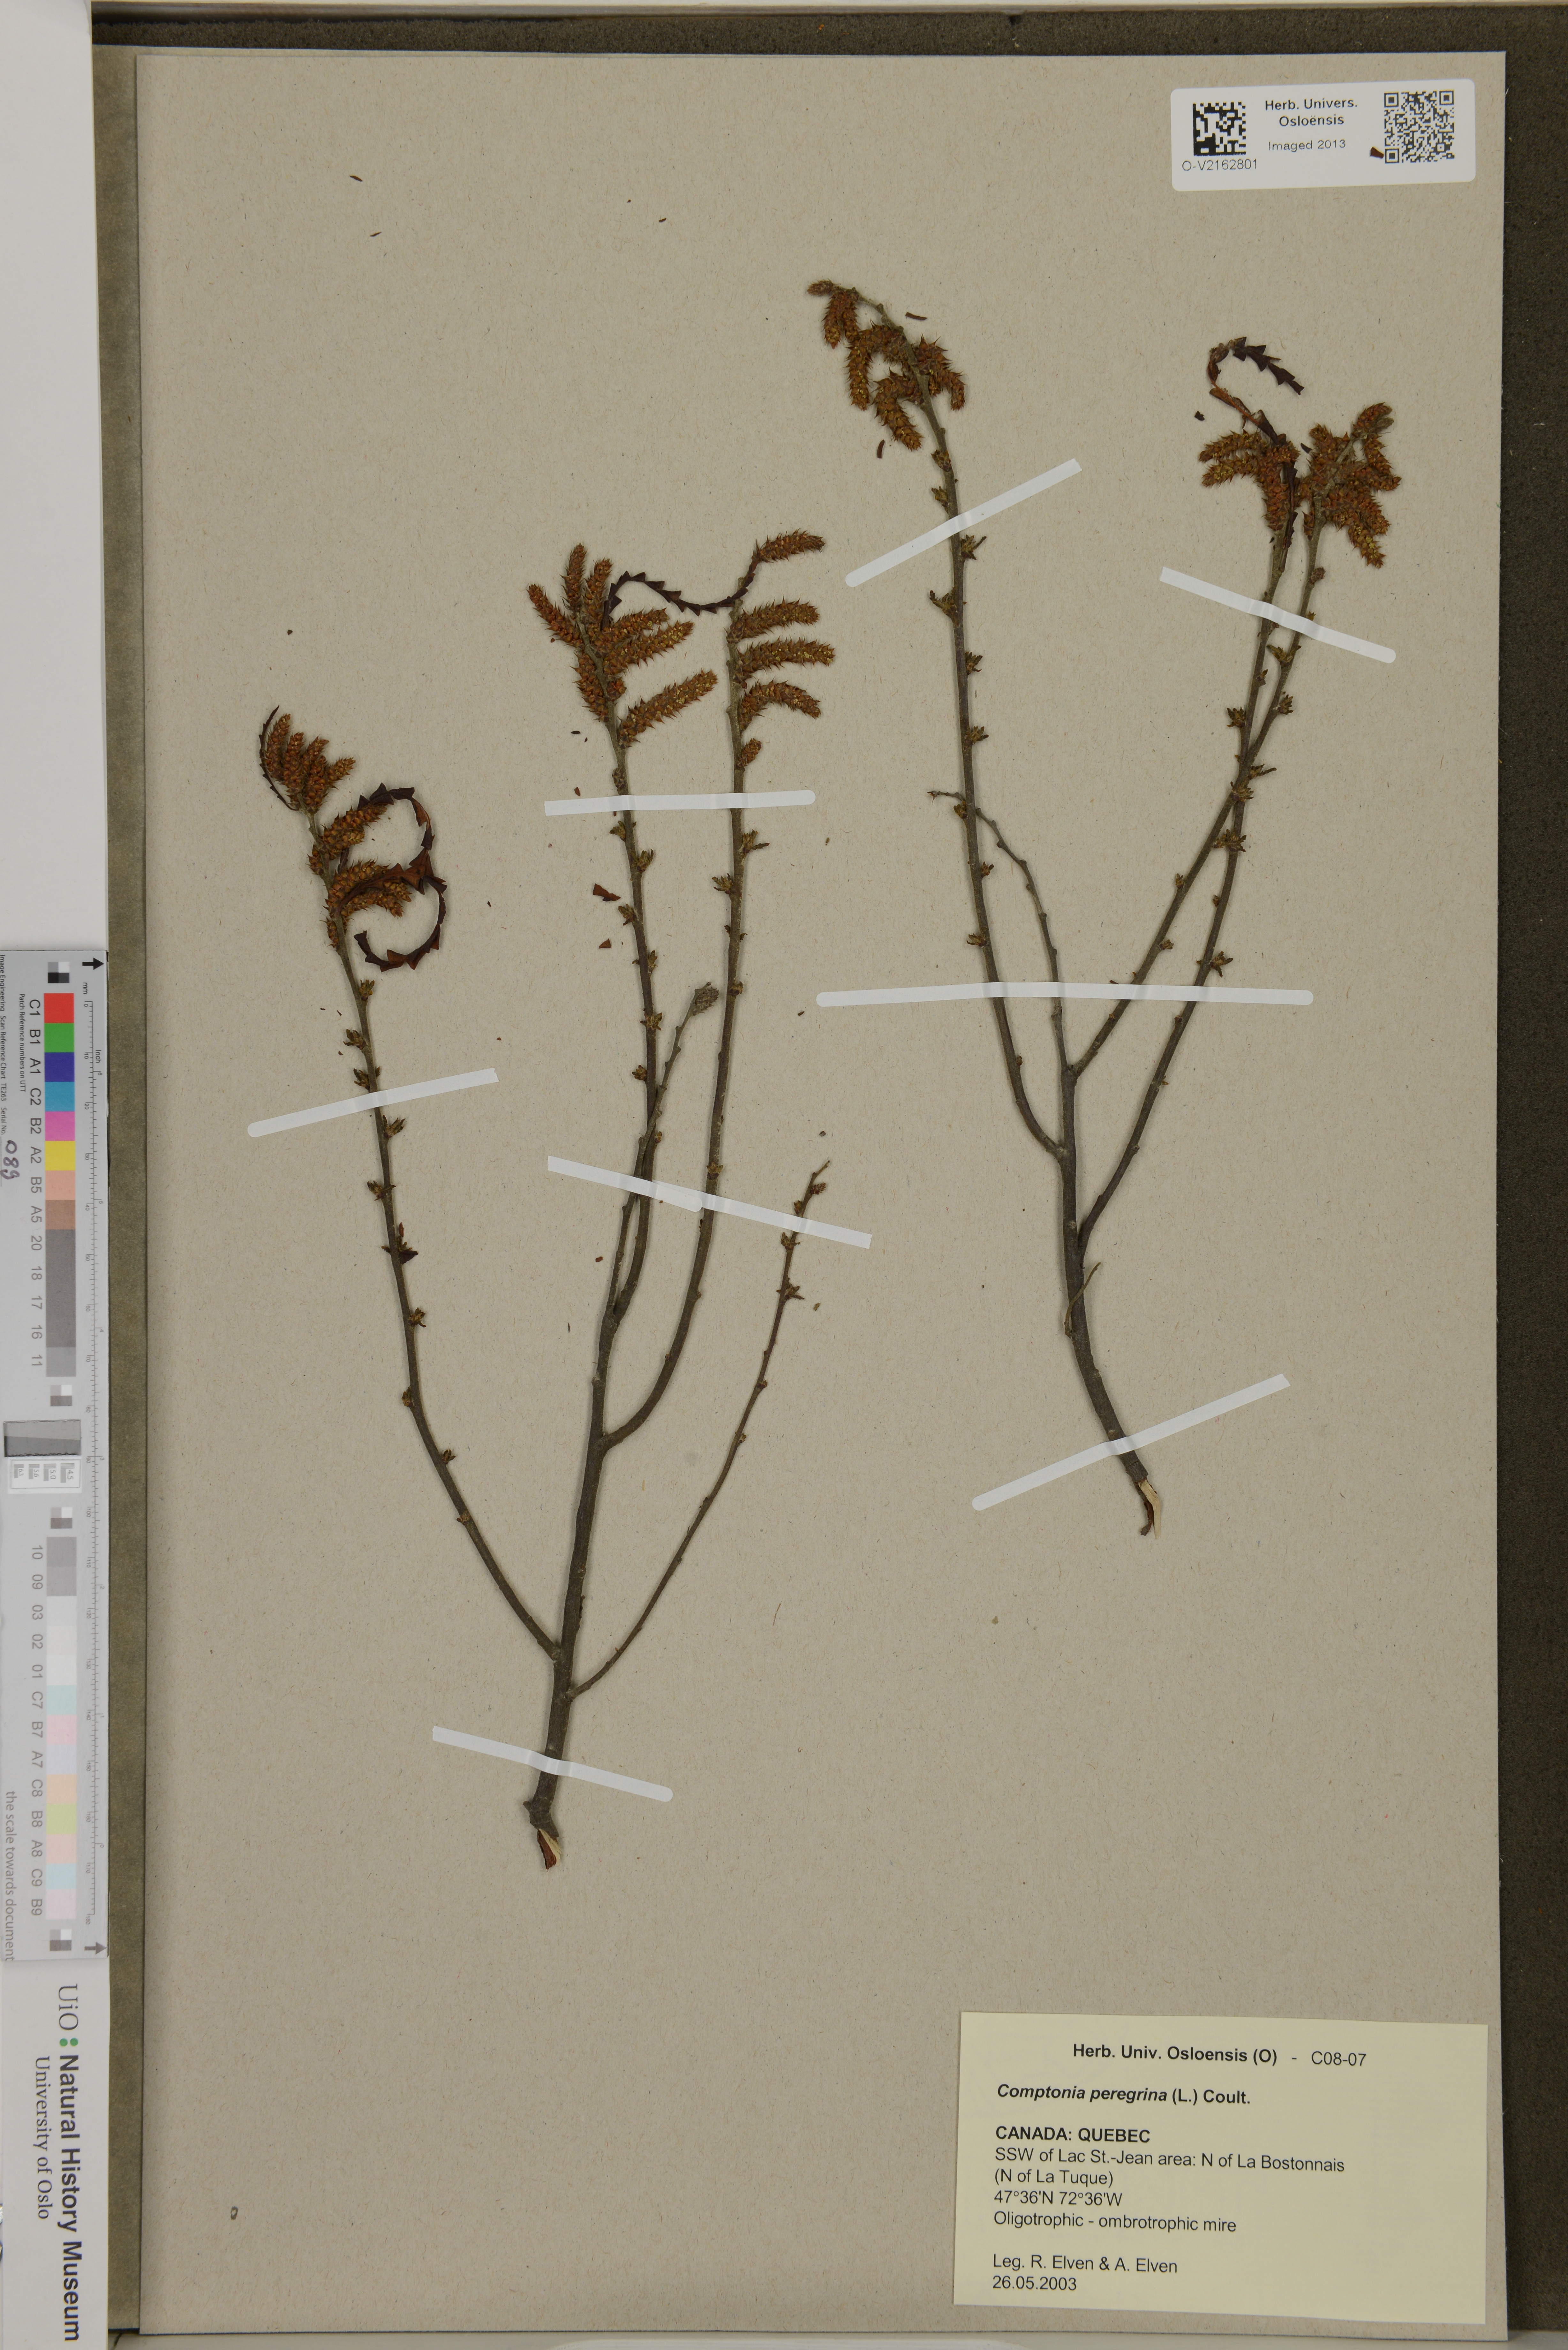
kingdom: Plantae
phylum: Tracheophyta
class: Magnoliopsida
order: Fagales
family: Myricaceae
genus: Comptonia
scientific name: Comptonia peregrina
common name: Sweet-fern
